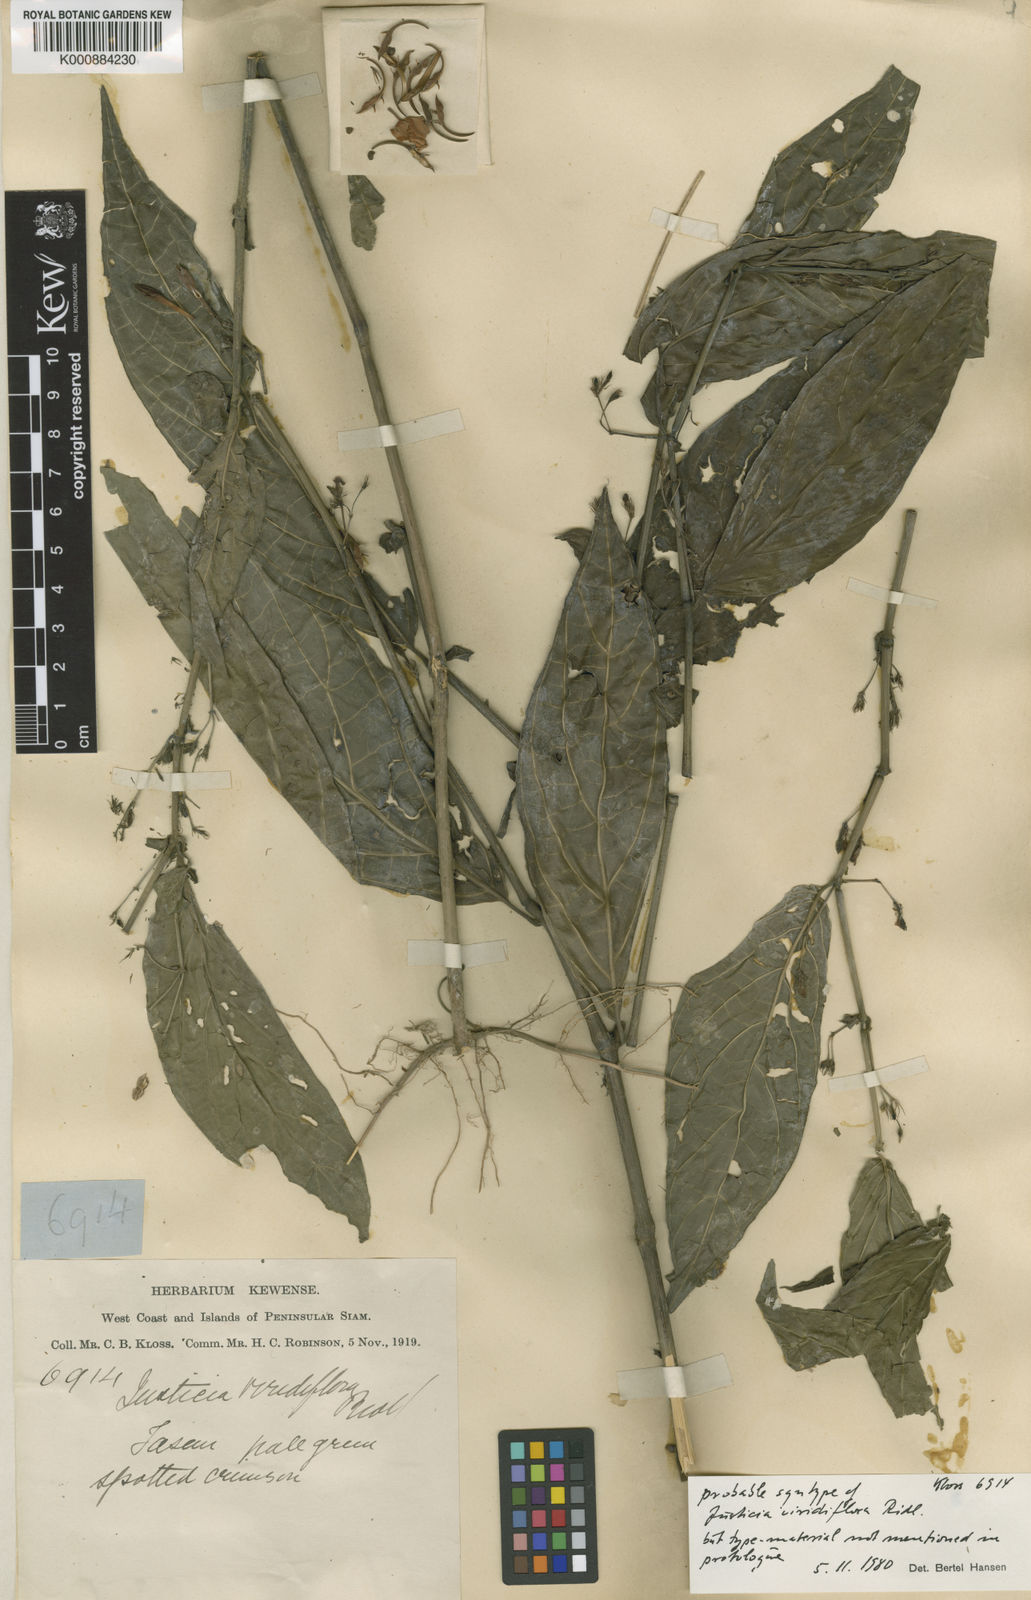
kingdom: Plantae
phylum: Tracheophyta
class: Magnoliopsida
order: Lamiales
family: Acanthaceae
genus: Justicia
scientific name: Justicia
